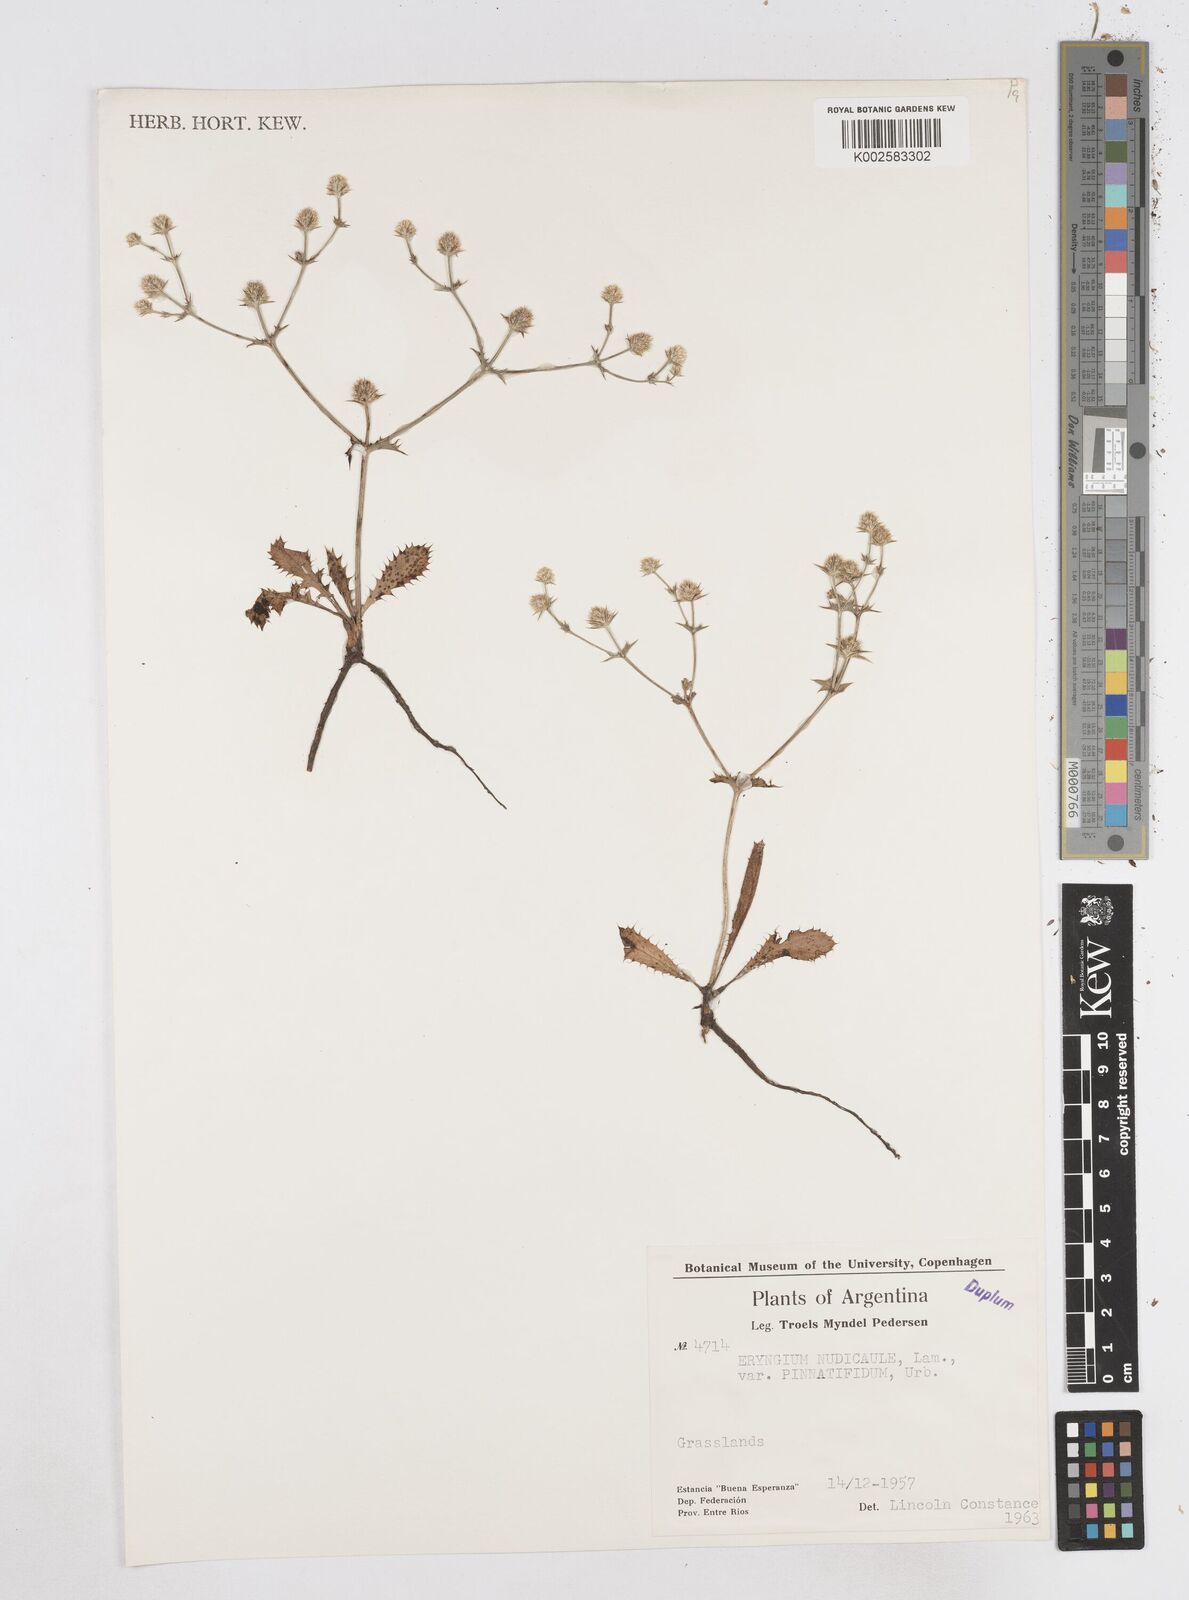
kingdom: Plantae
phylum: Tracheophyta
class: Magnoliopsida
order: Apiales
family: Apiaceae
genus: Eryngium
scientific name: Eryngium nudicaule
